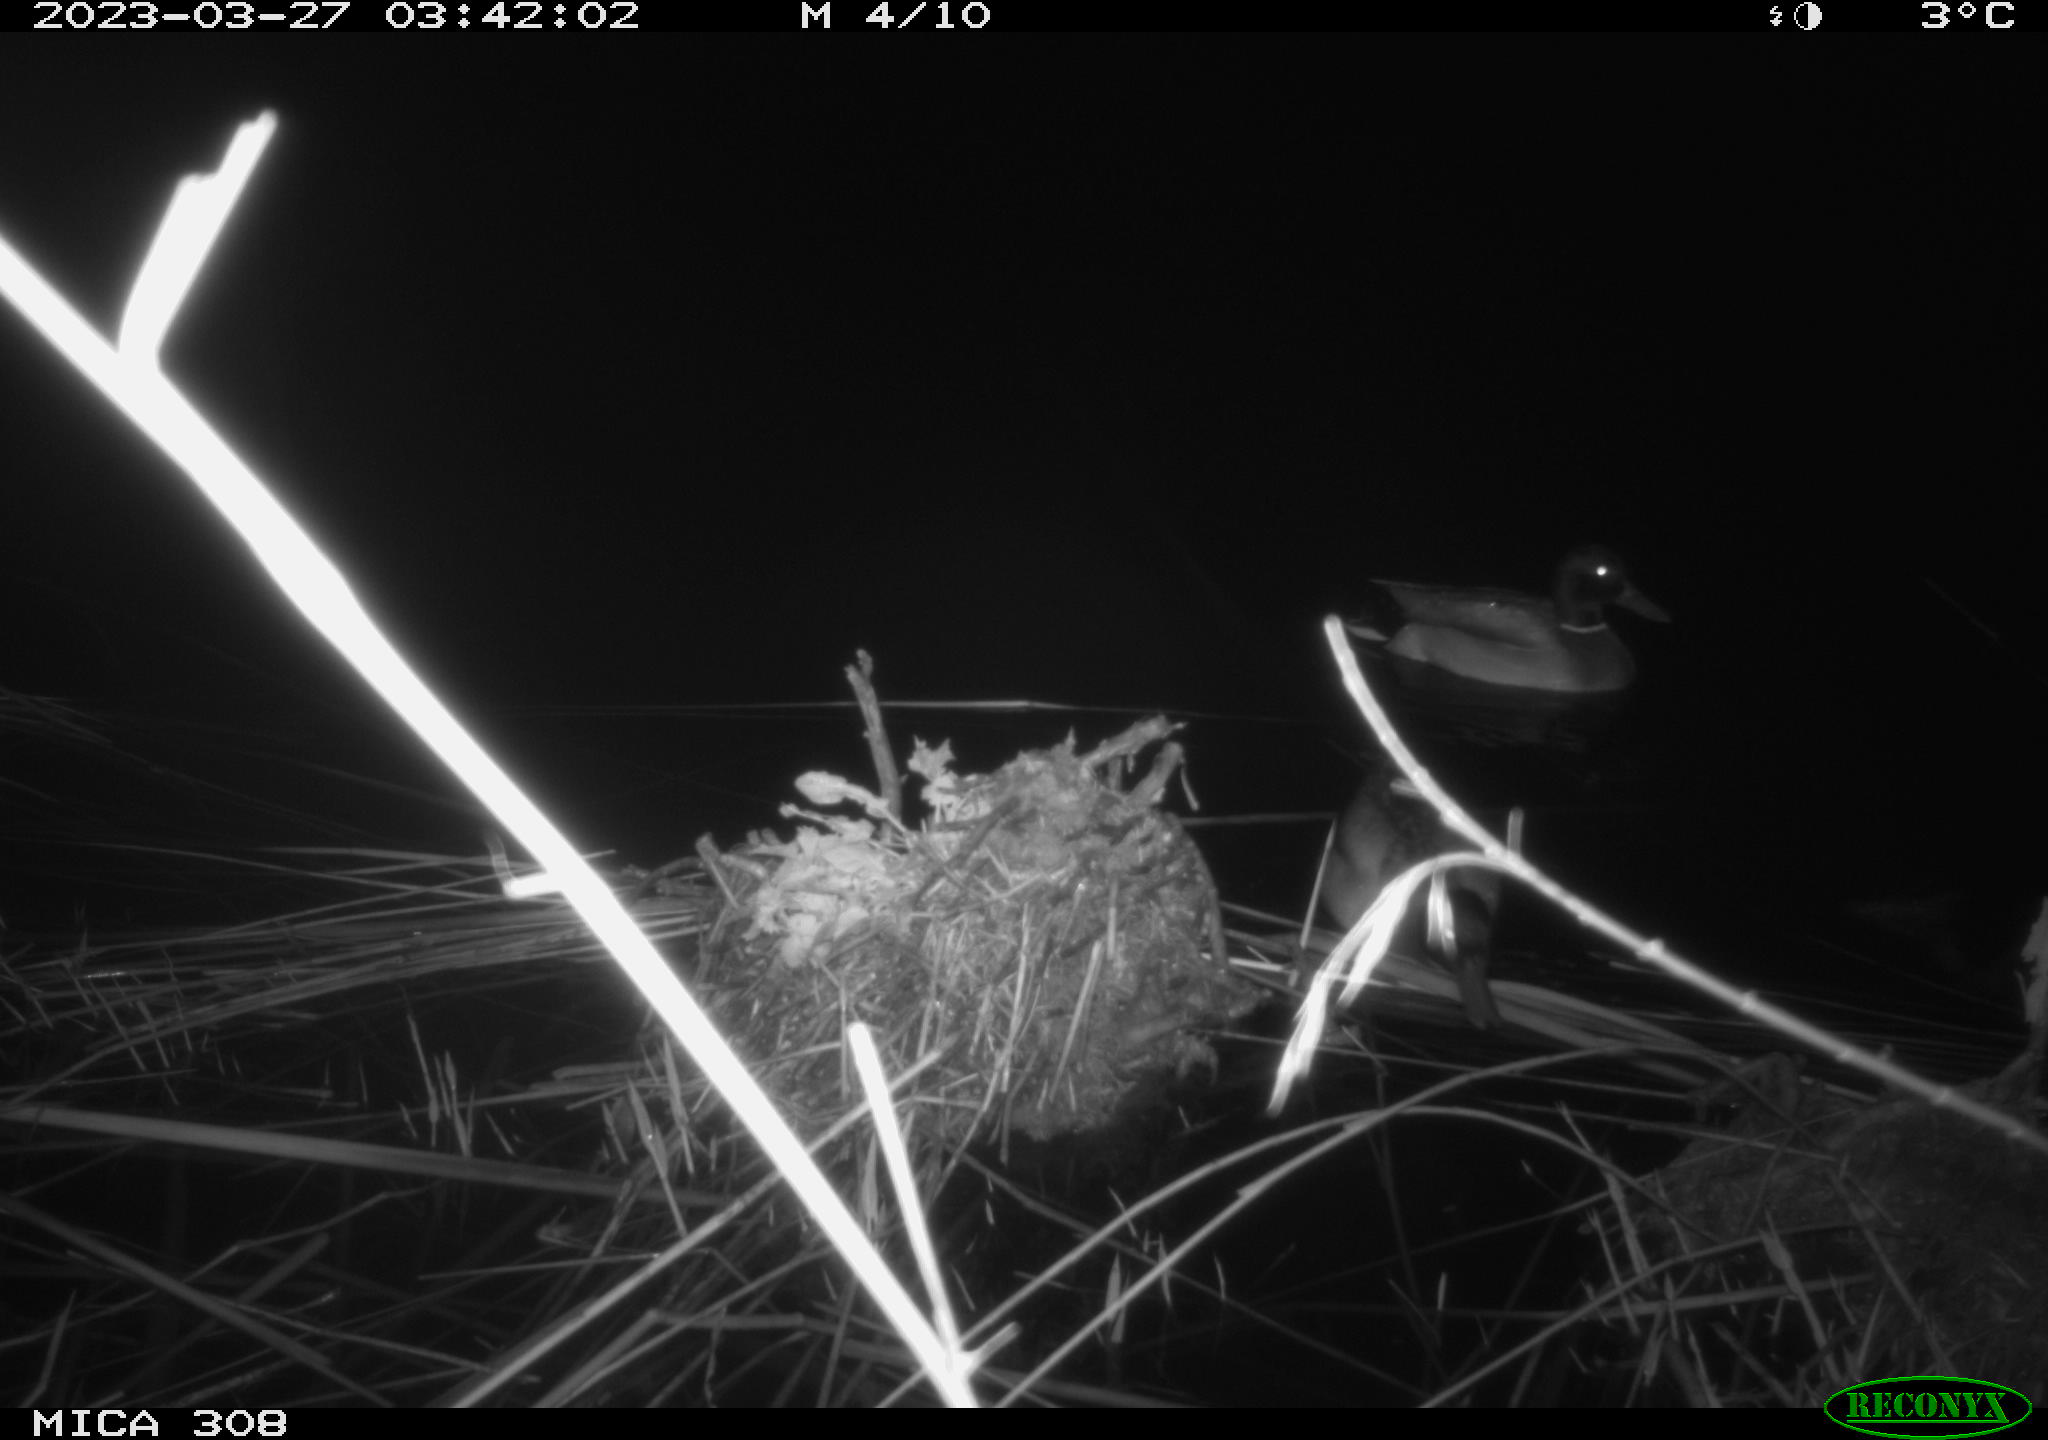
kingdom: Animalia
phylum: Chordata
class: Aves
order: Anseriformes
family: Anatidae
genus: Anas
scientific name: Anas
